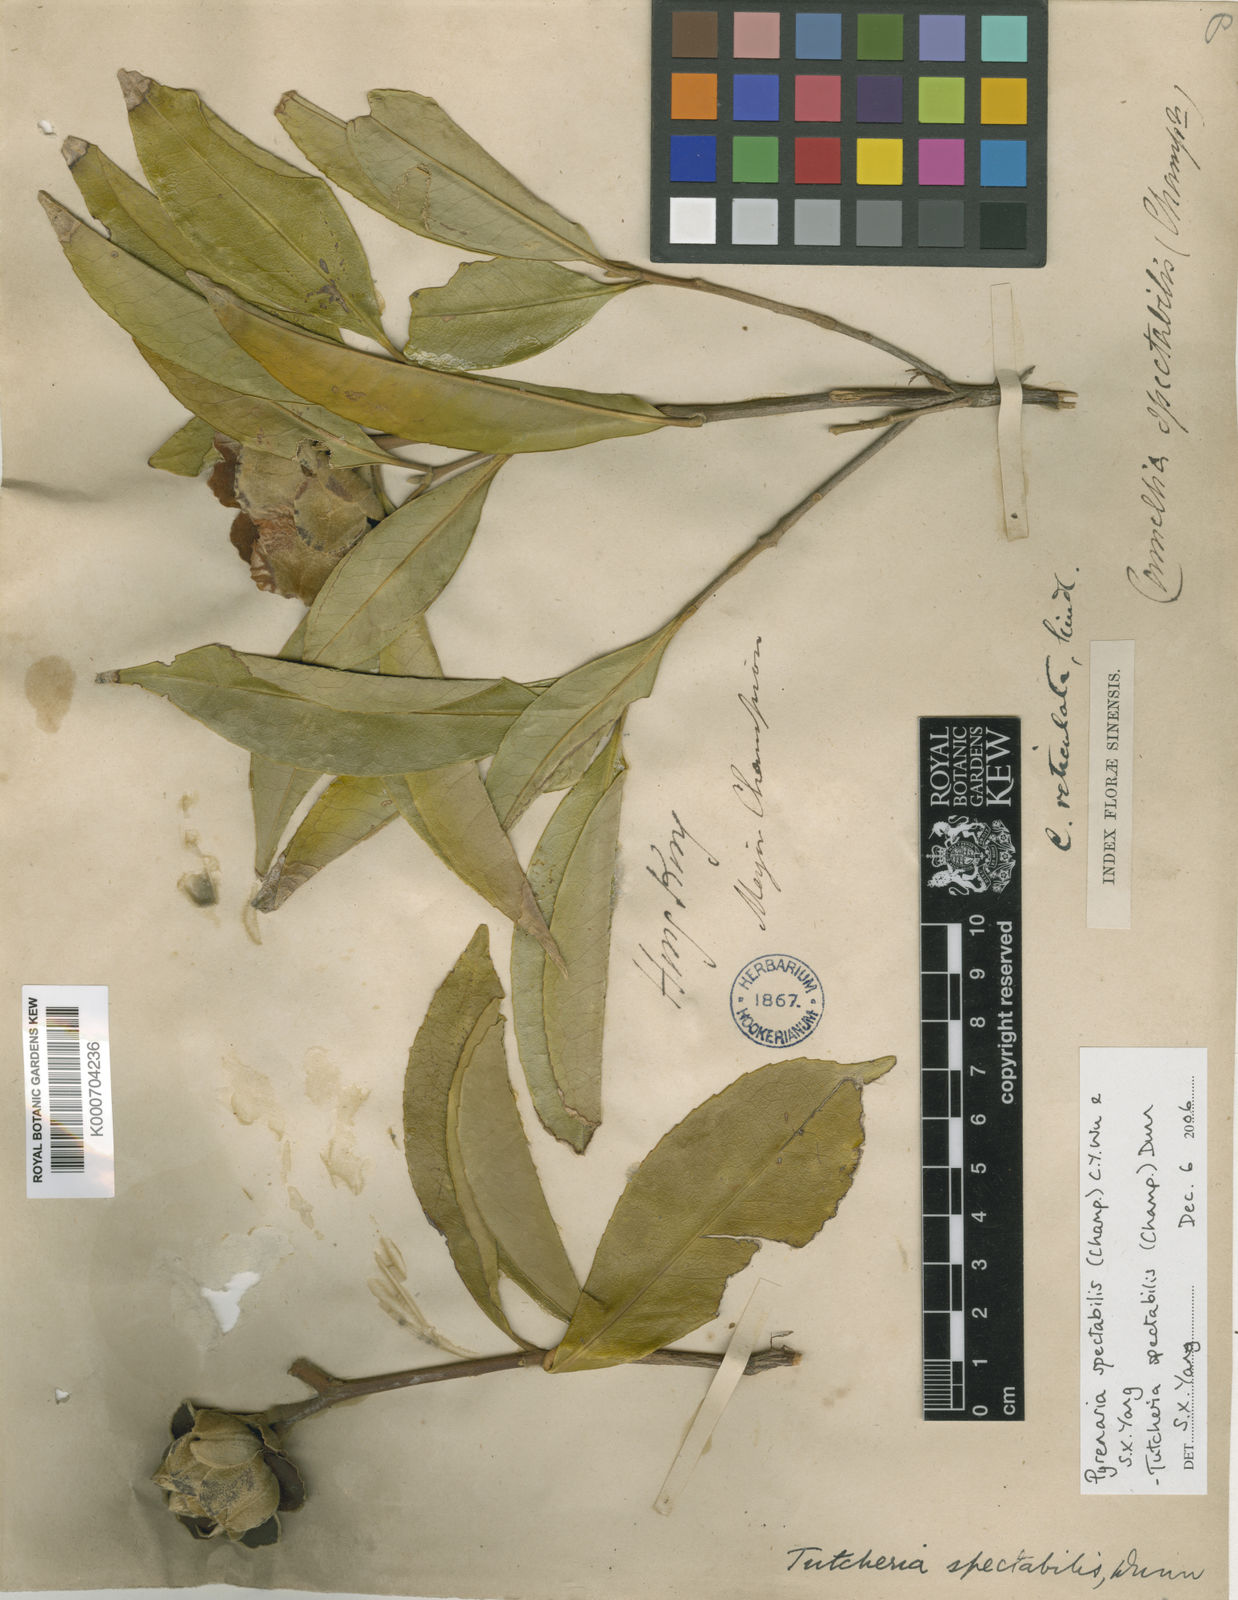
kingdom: Plantae
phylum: Tracheophyta
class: Magnoliopsida
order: Ericales
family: Theaceae
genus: Pyrenaria
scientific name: Pyrenaria spectabilis
